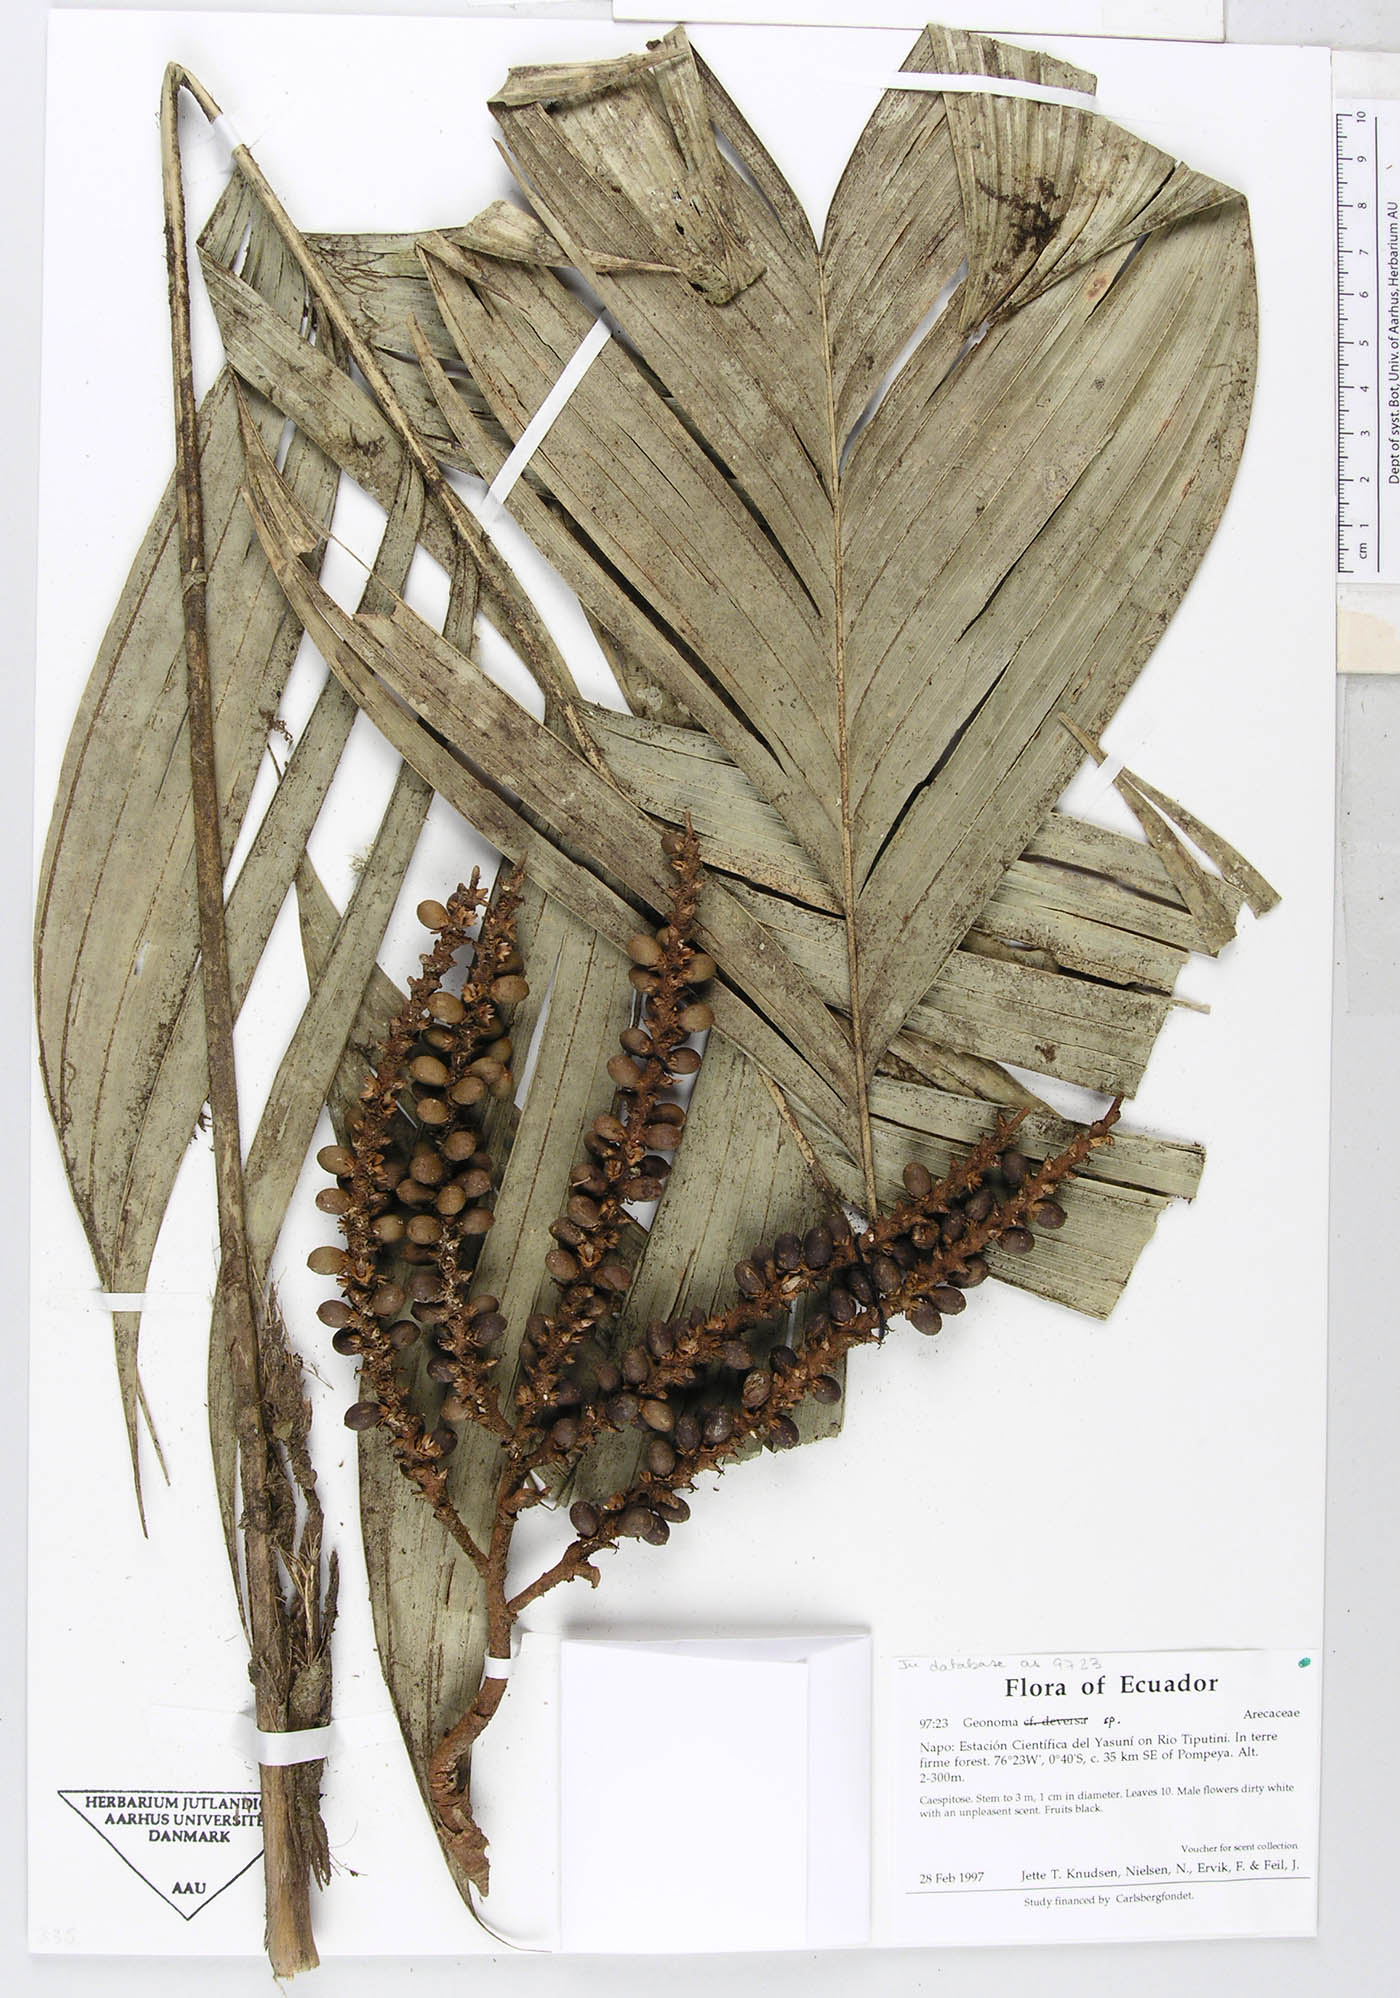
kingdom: Plantae
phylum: Tracheophyta
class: Liliopsida
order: Arecales
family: Arecaceae
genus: Geonoma
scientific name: Geonoma stricta
